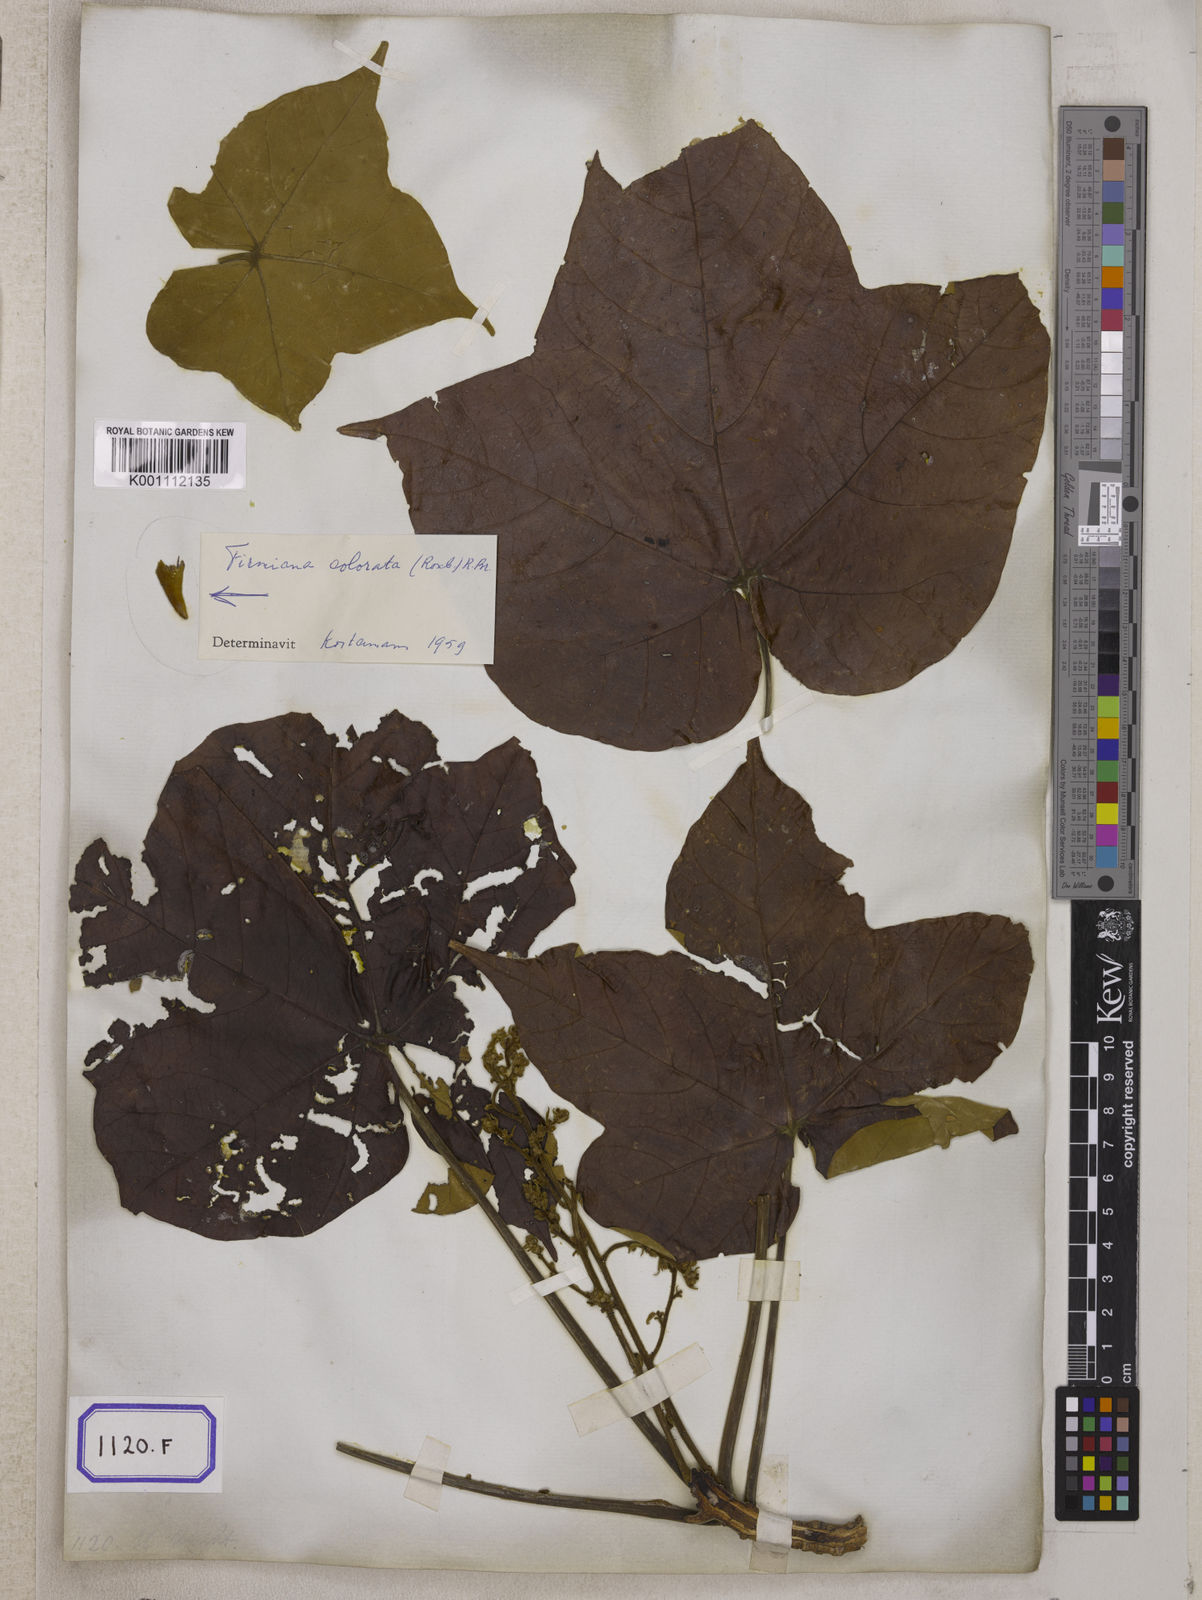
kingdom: Plantae
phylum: Tracheophyta
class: Magnoliopsida
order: Malvales
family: Malvaceae
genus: Sterculia
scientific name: Sterculia urens
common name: Indian-tragacanth
